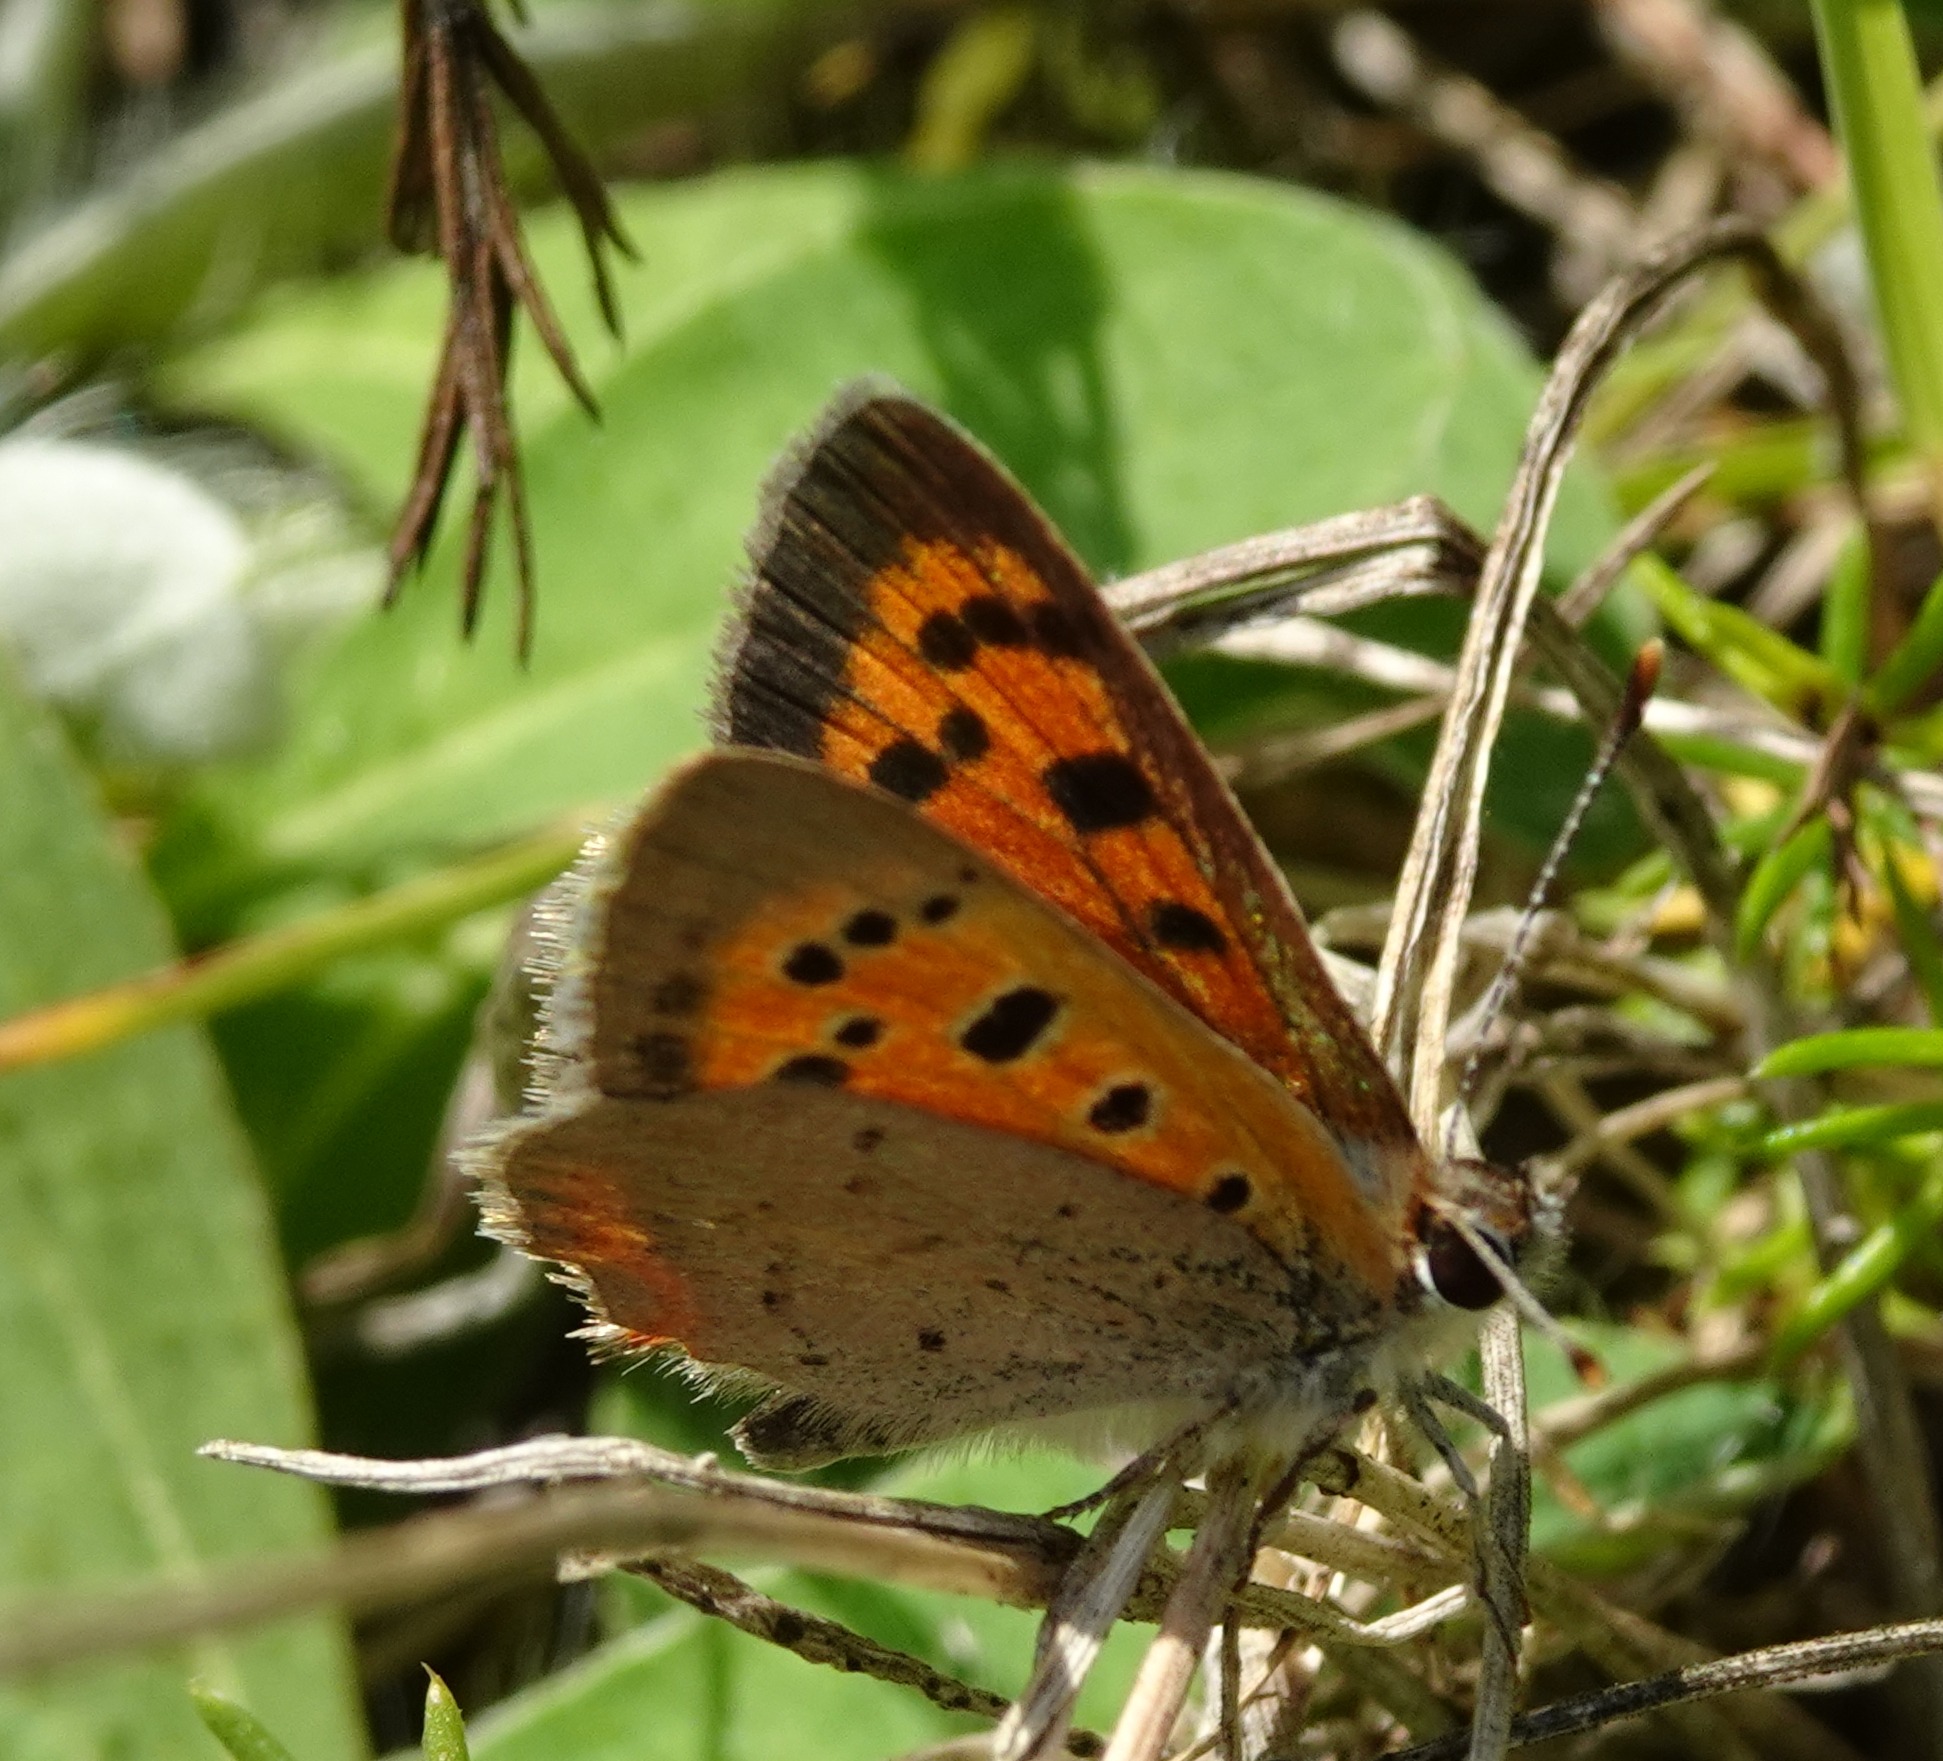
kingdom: Animalia
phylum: Arthropoda
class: Insecta
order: Lepidoptera
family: Lycaenidae
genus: Lycaena
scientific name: Lycaena phlaeas
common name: Lille ildfugl
